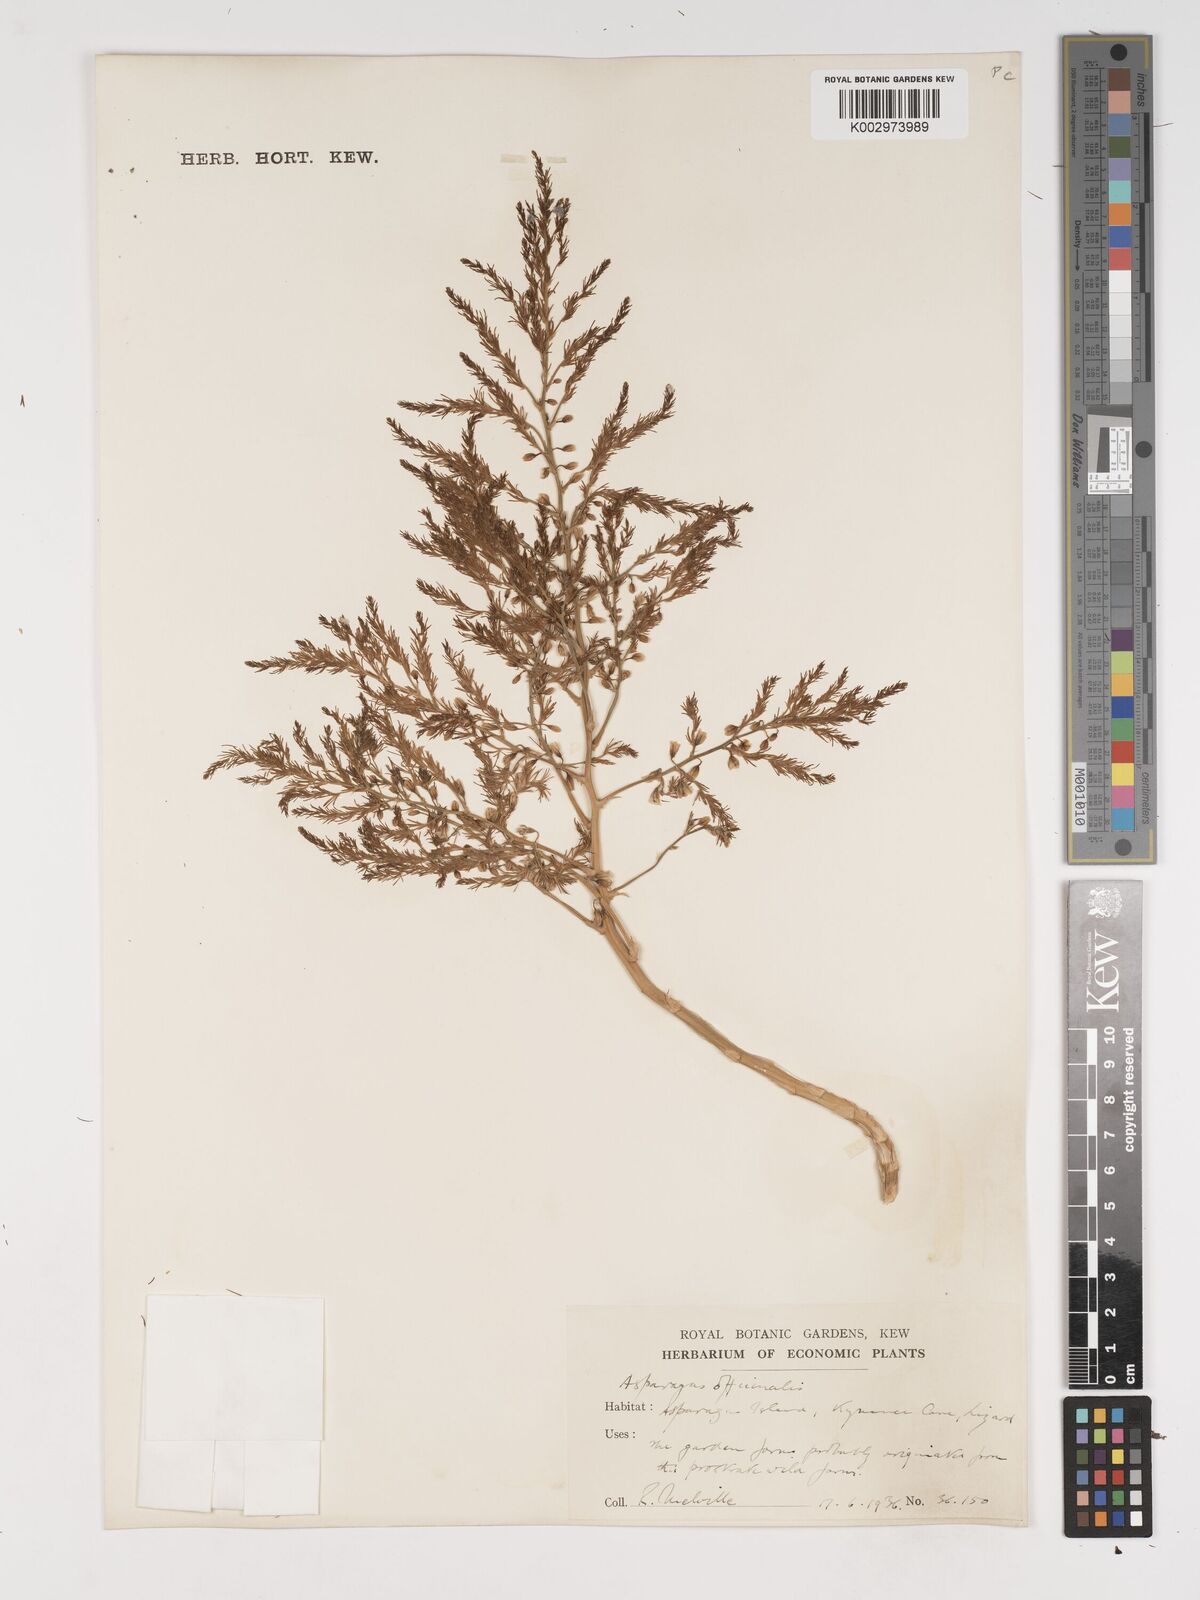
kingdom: Plantae
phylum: Tracheophyta
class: Liliopsida
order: Asparagales
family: Asparagaceae
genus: Asparagus
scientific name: Asparagus maritimus
